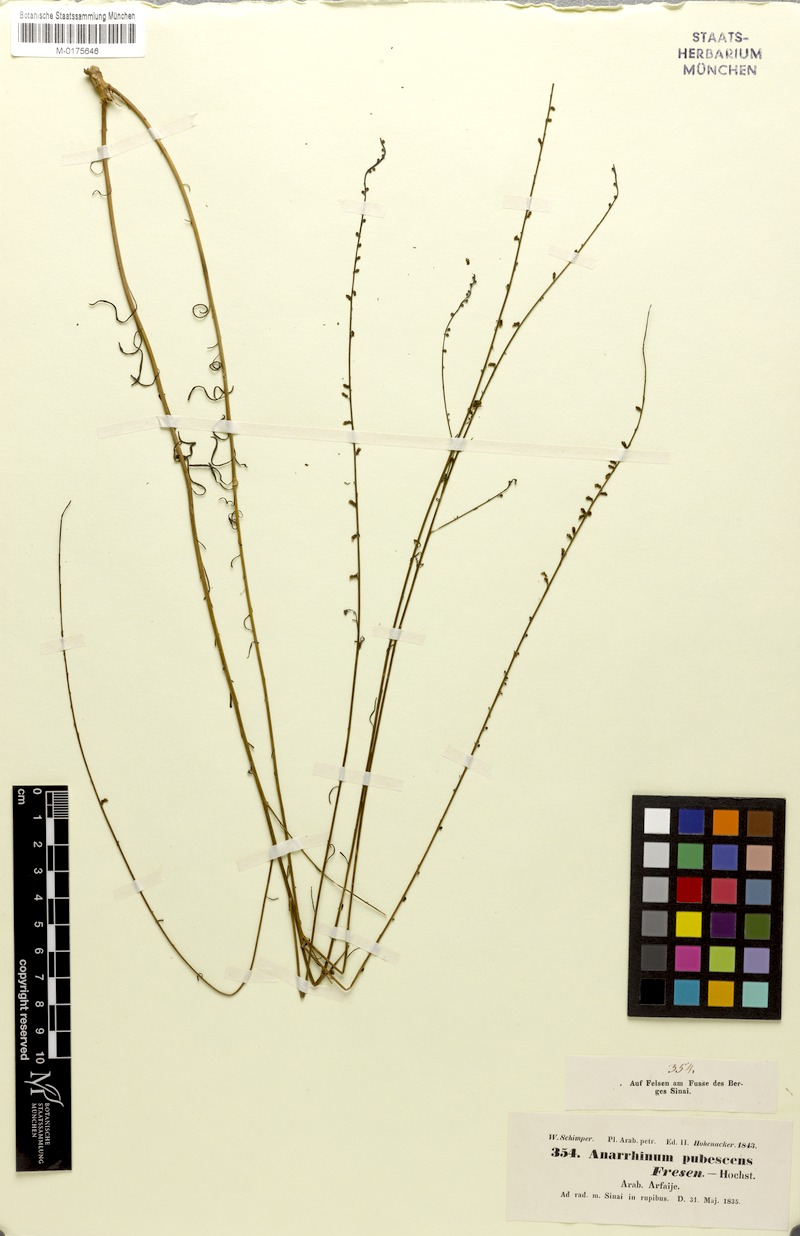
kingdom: Plantae
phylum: Tracheophyta
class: Magnoliopsida
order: Lamiales
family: Plantaginaceae
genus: Anarrhinum
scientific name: Anarrhinum forskaohlii
